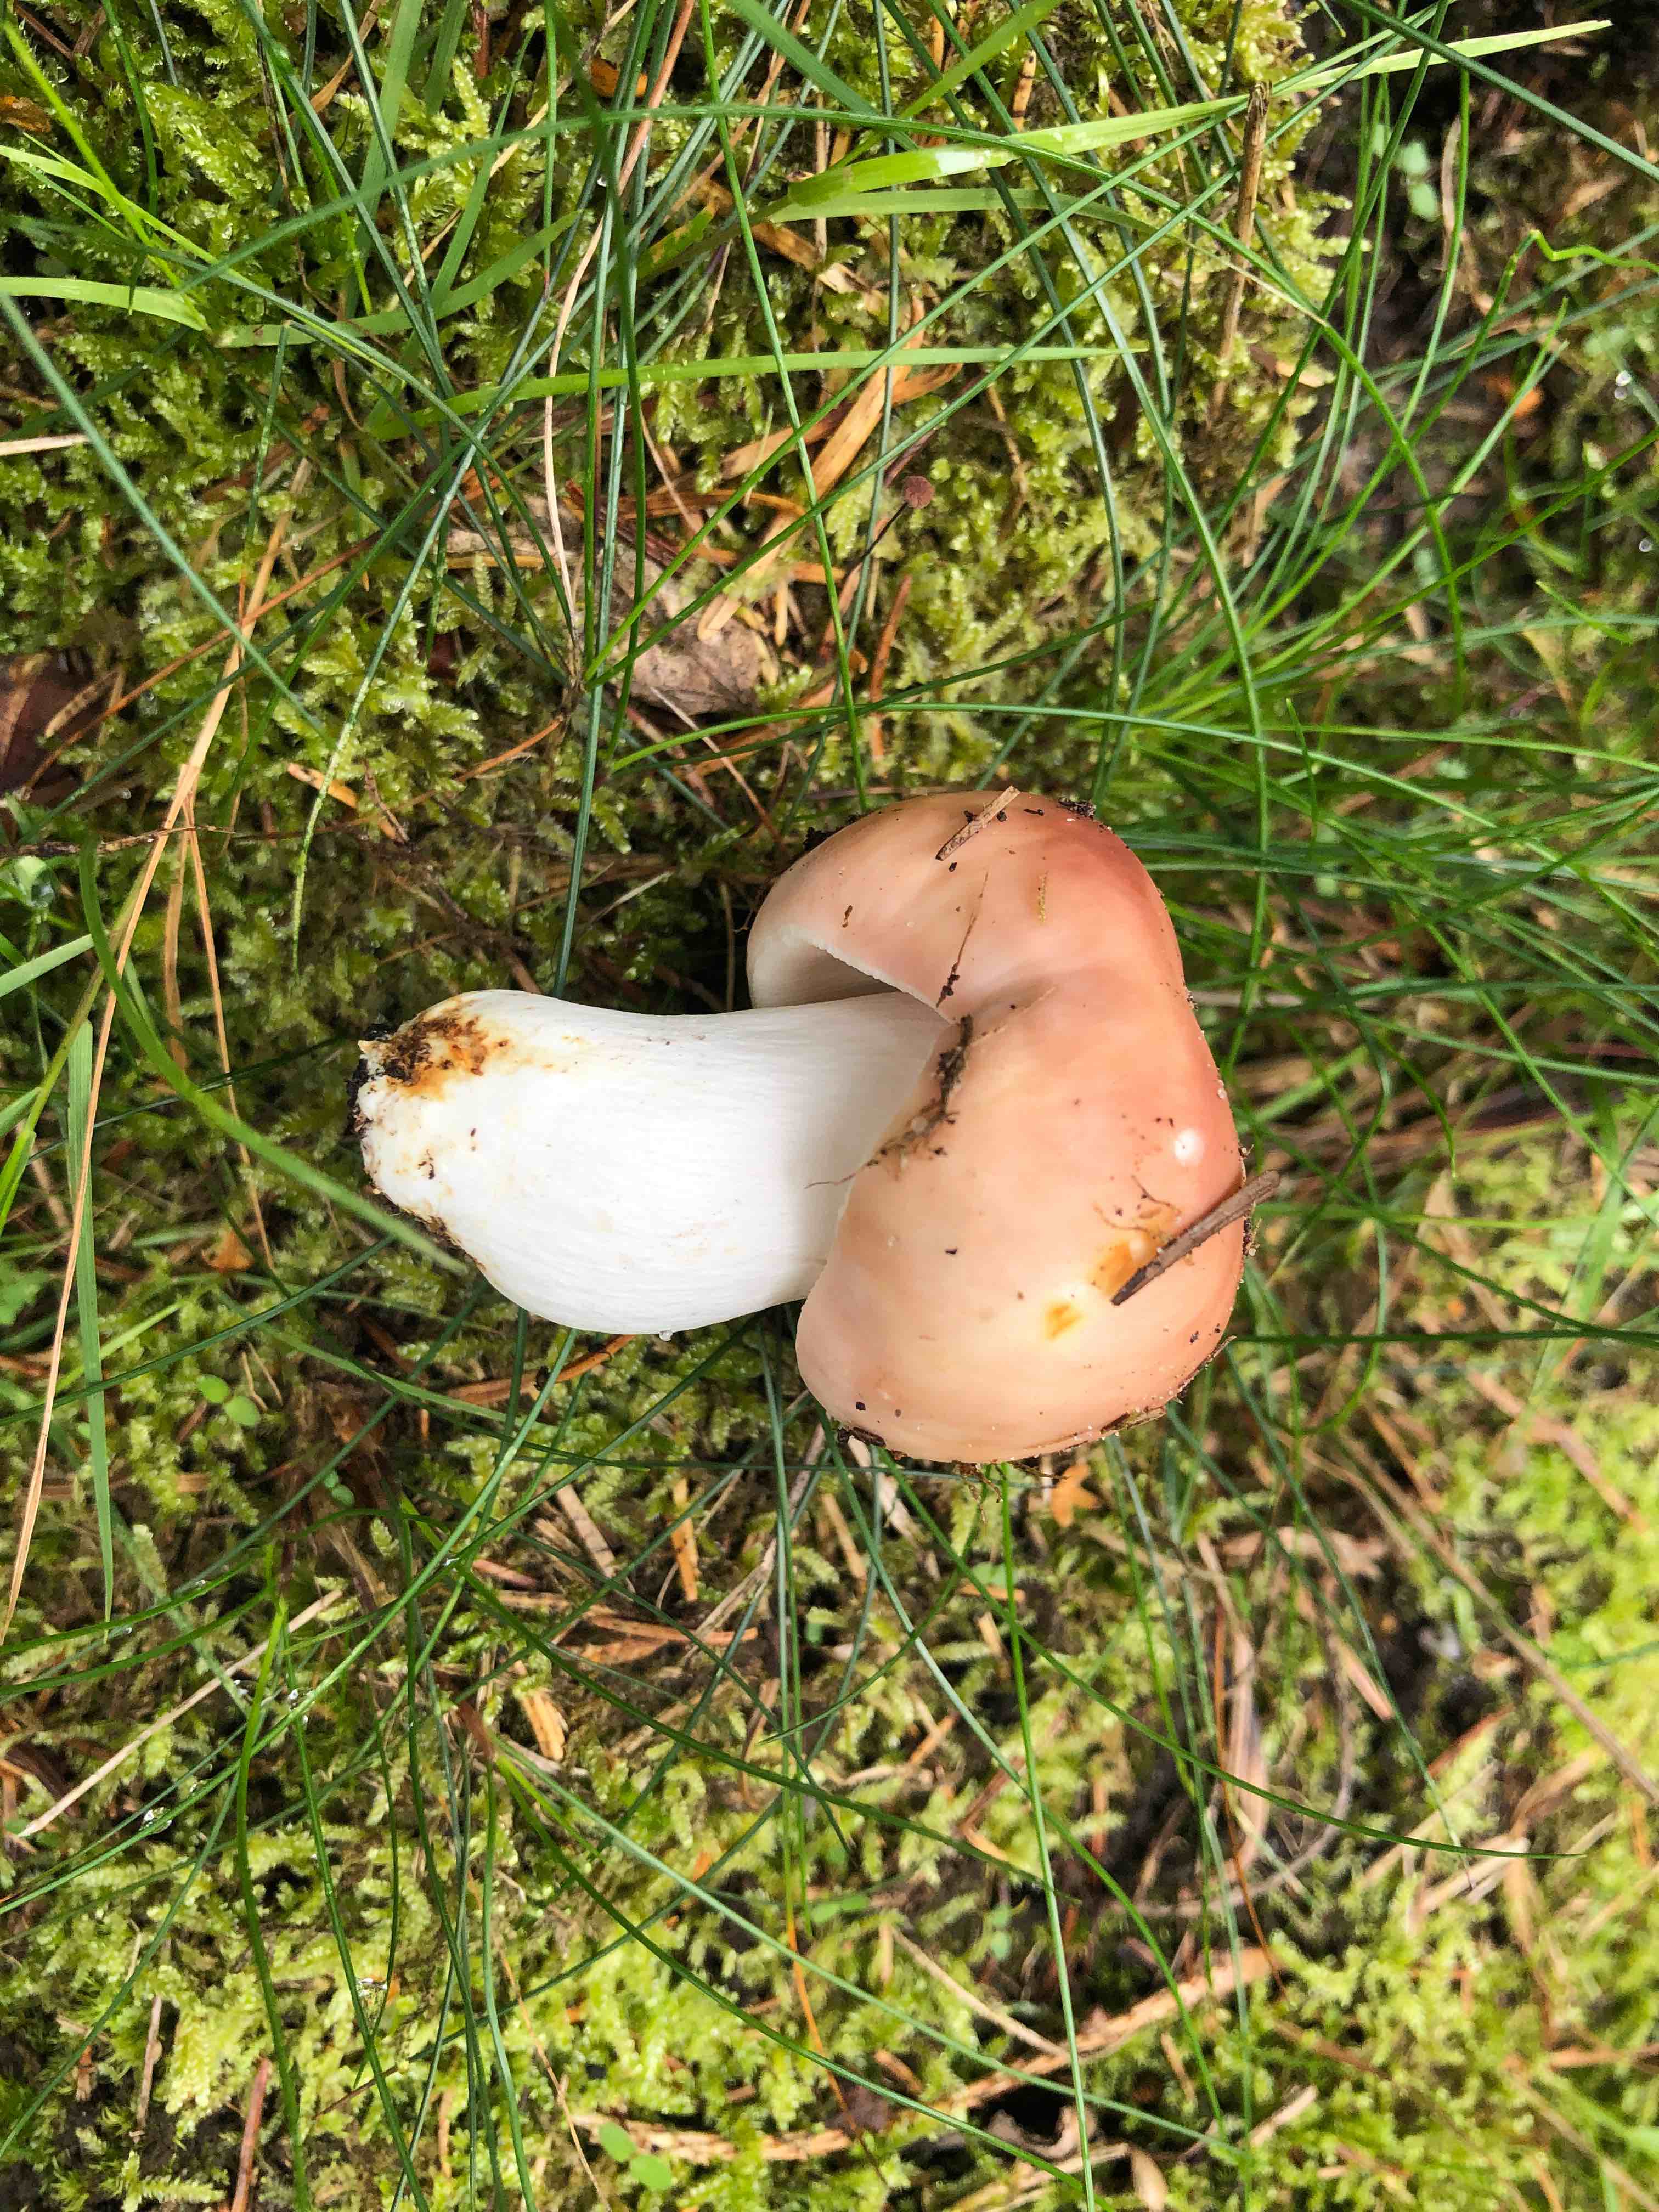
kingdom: Fungi
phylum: Basidiomycota
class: Agaricomycetes
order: Russulales
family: Russulaceae
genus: Russula
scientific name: Russula vesca
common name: spiselig skørhat
